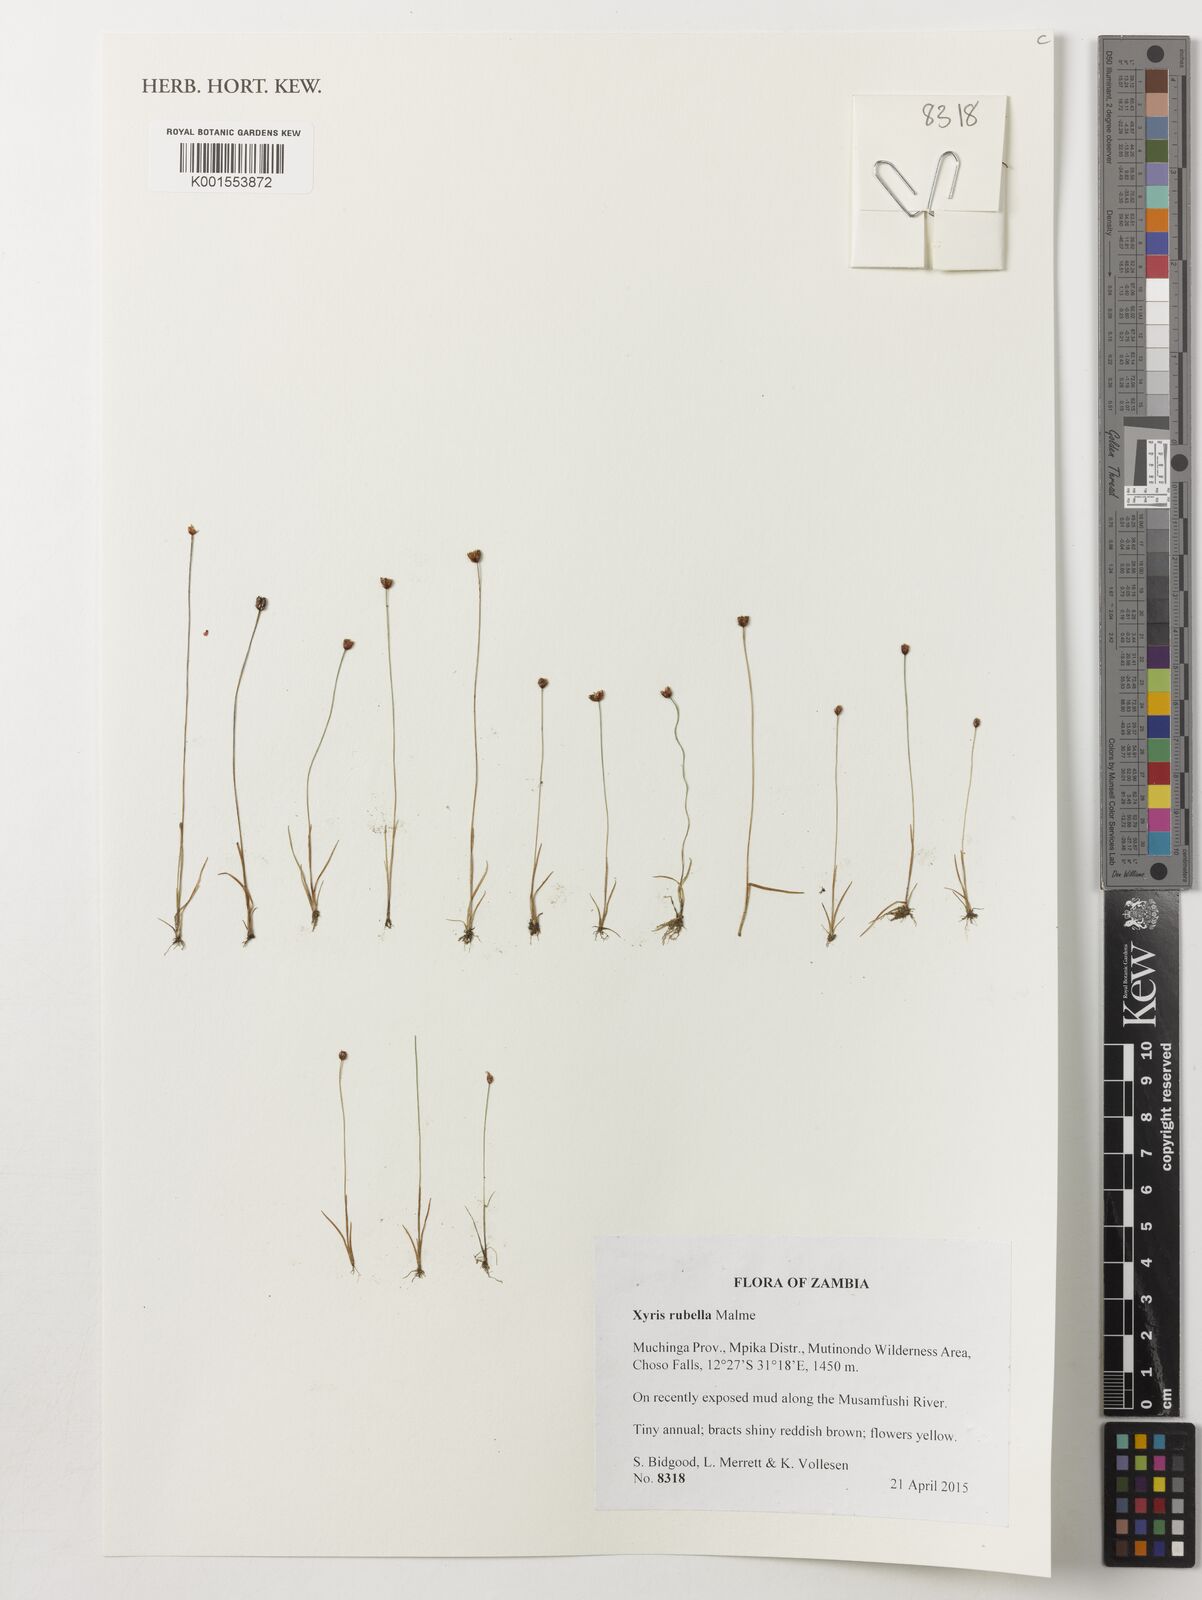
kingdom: Plantae
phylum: Tracheophyta
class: Liliopsida
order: Poales
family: Xyridaceae
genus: Xyris
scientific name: Xyris rubella
